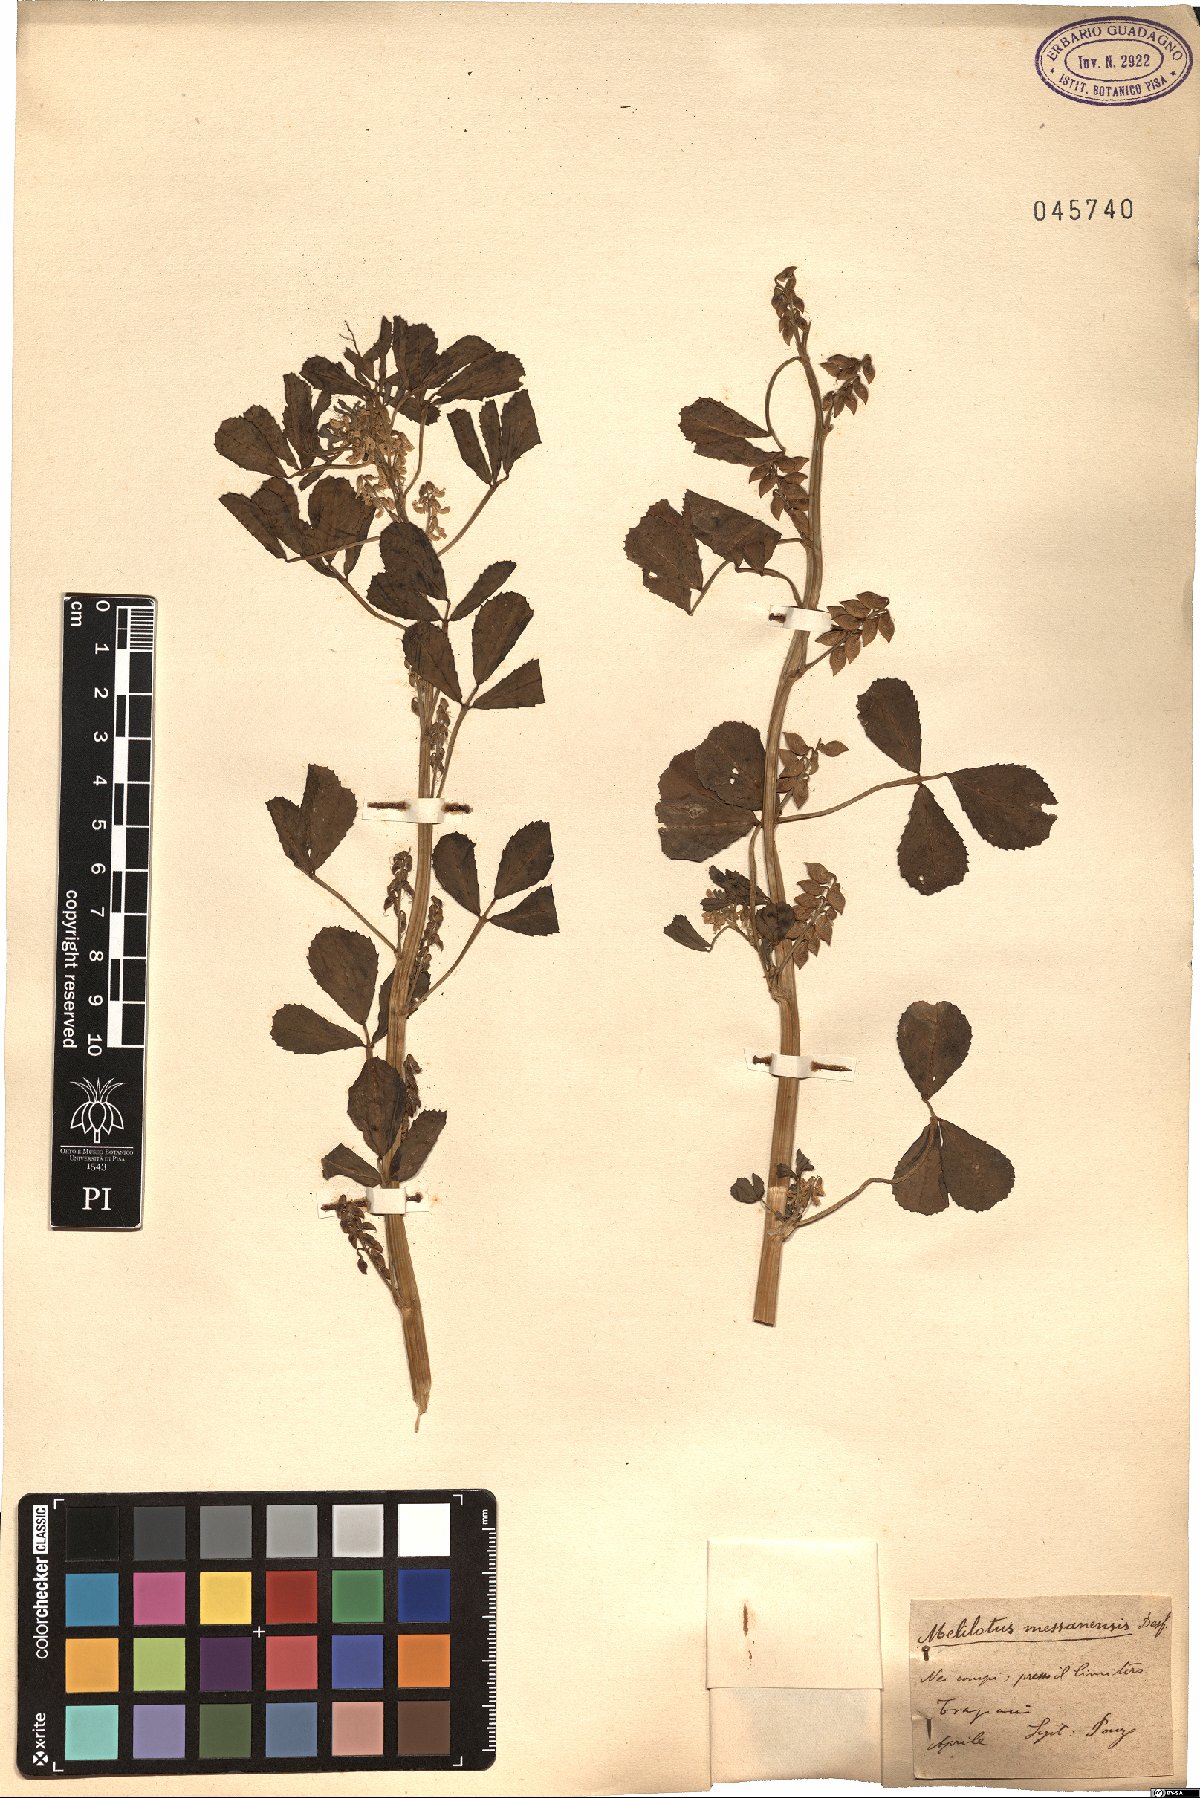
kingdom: Plantae
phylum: Tracheophyta
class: Magnoliopsida
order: Fabales
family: Fabaceae
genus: Melilotus
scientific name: Melilotus siculus
